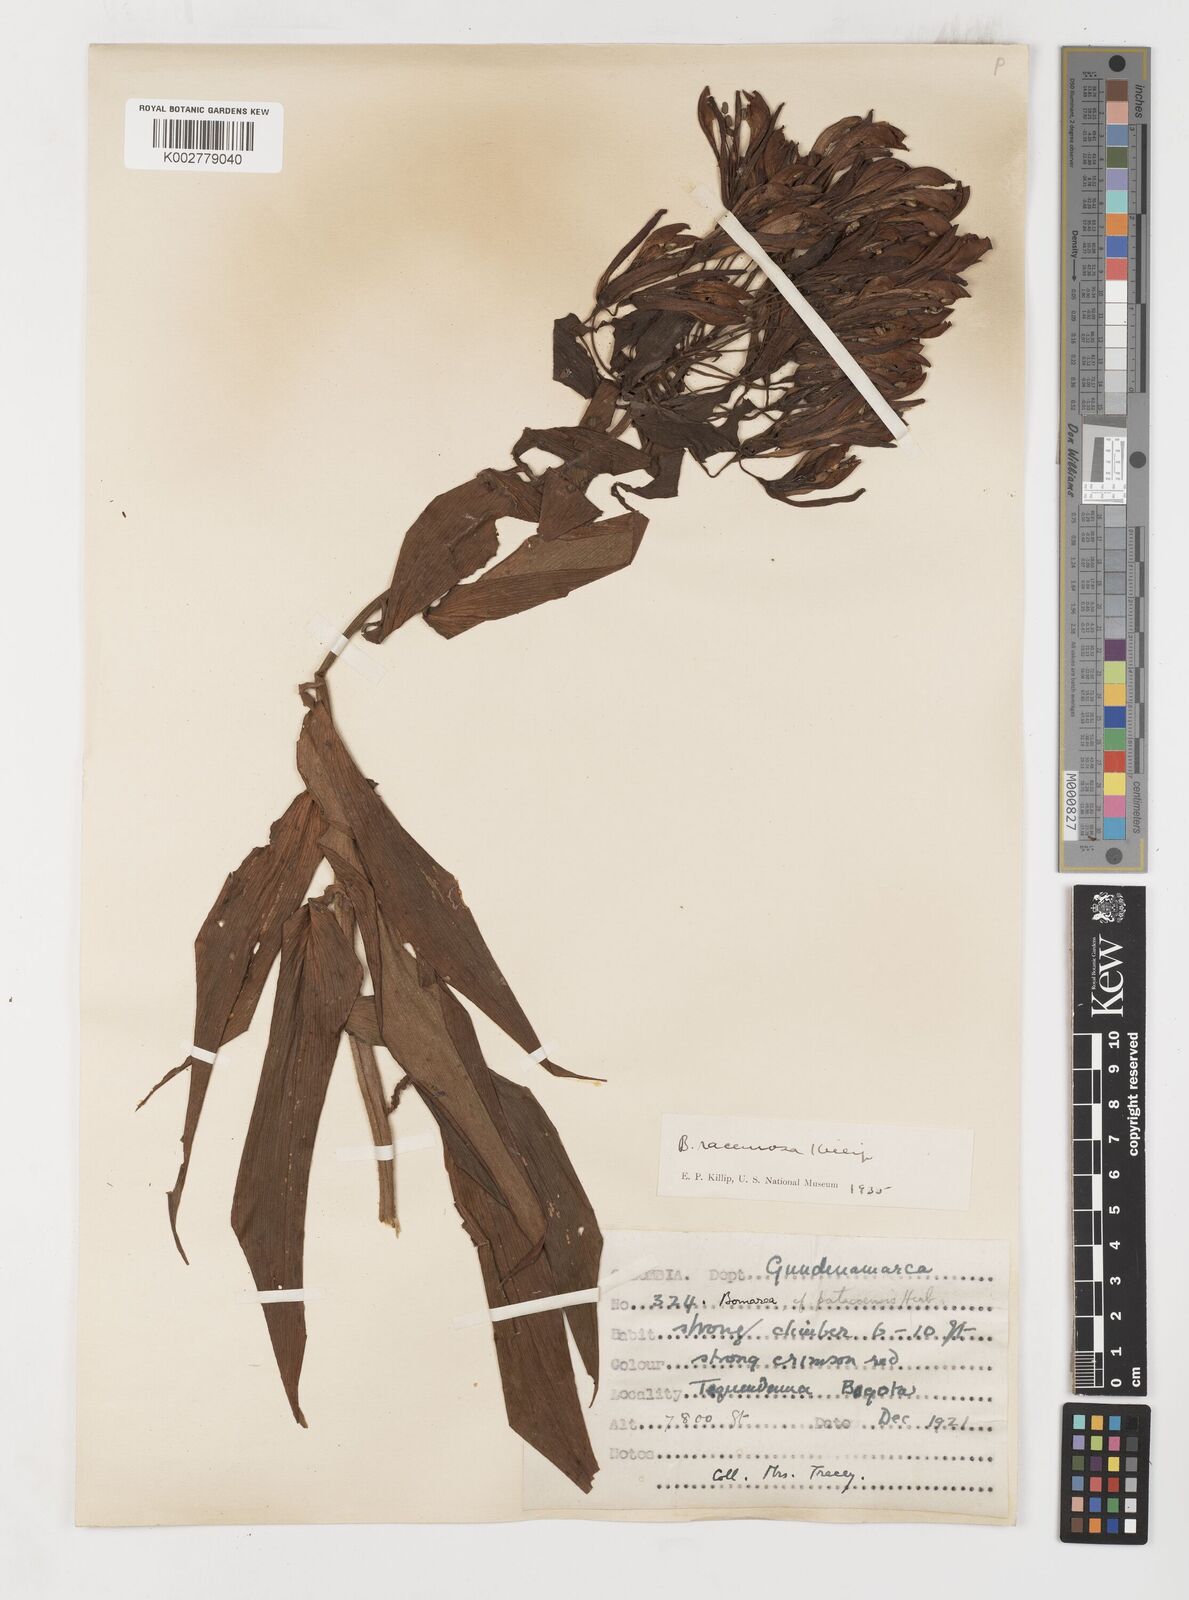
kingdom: Plantae
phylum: Tracheophyta
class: Liliopsida
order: Liliales
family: Alstroemeriaceae
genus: Bomarea
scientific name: Bomarea patinii
